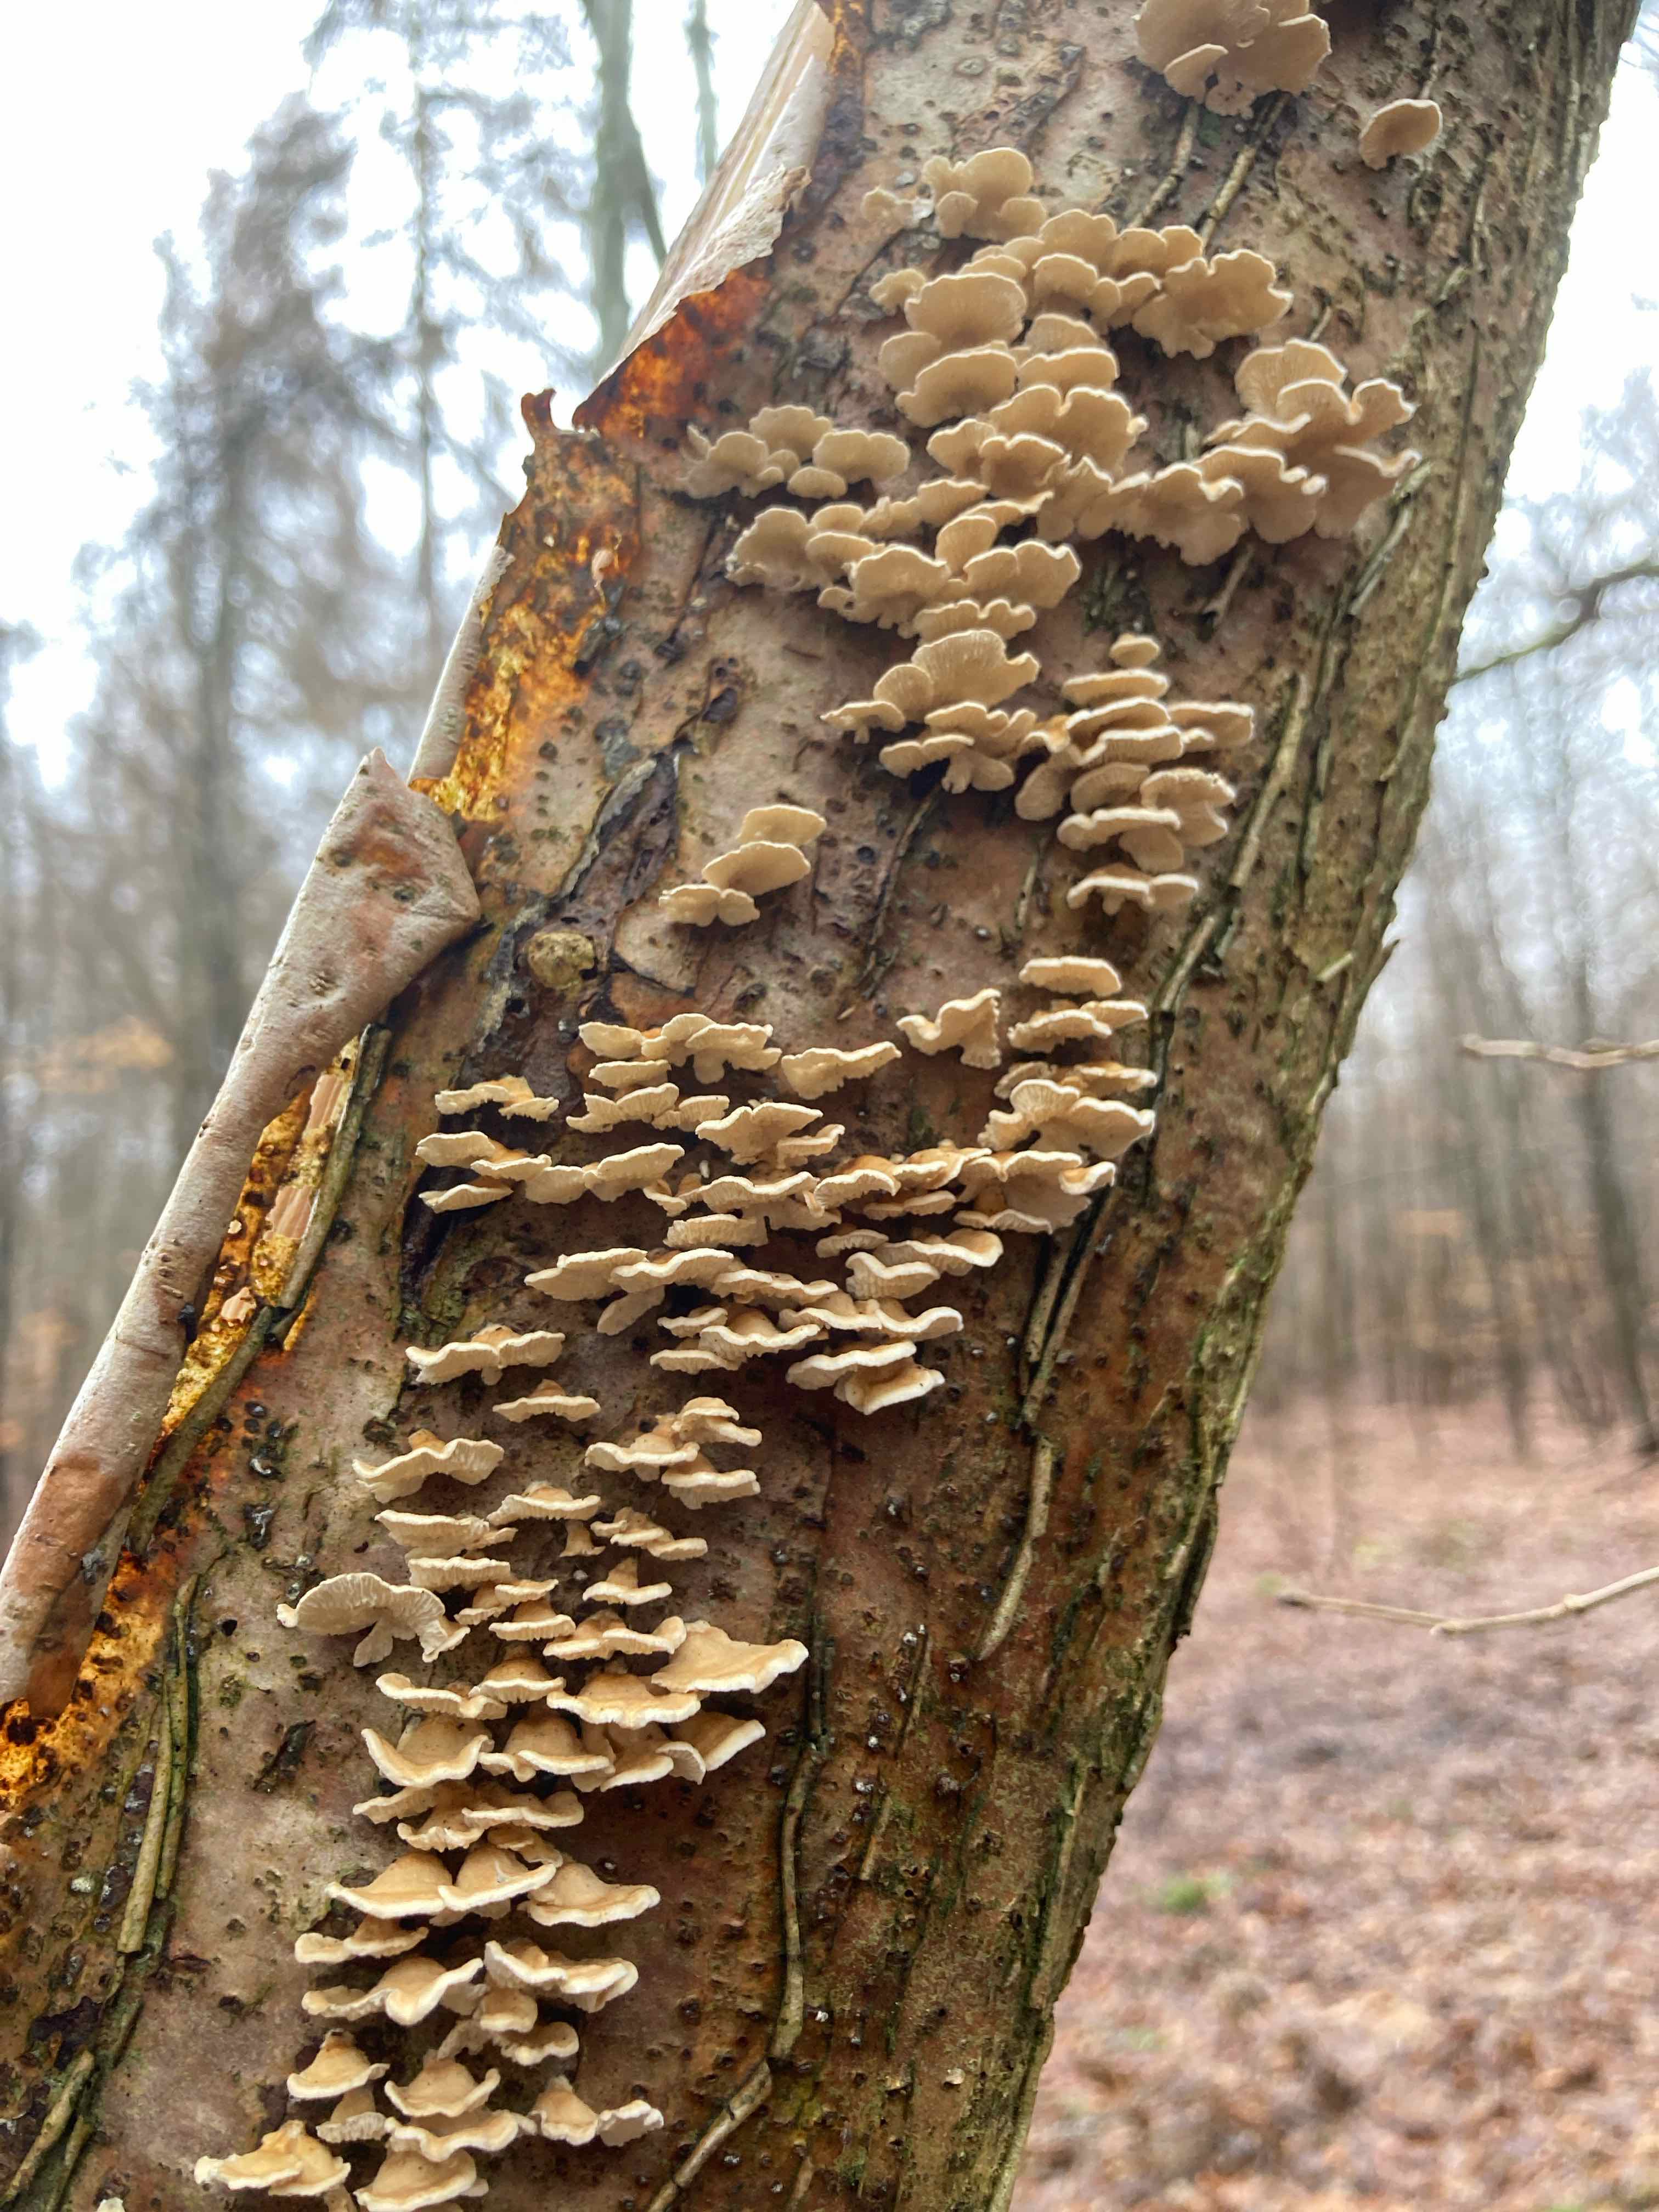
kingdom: Fungi
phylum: Basidiomycota
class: Agaricomycetes
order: Amylocorticiales
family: Amylocorticiaceae
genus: Plicaturopsis
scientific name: Plicaturopsis crispa
